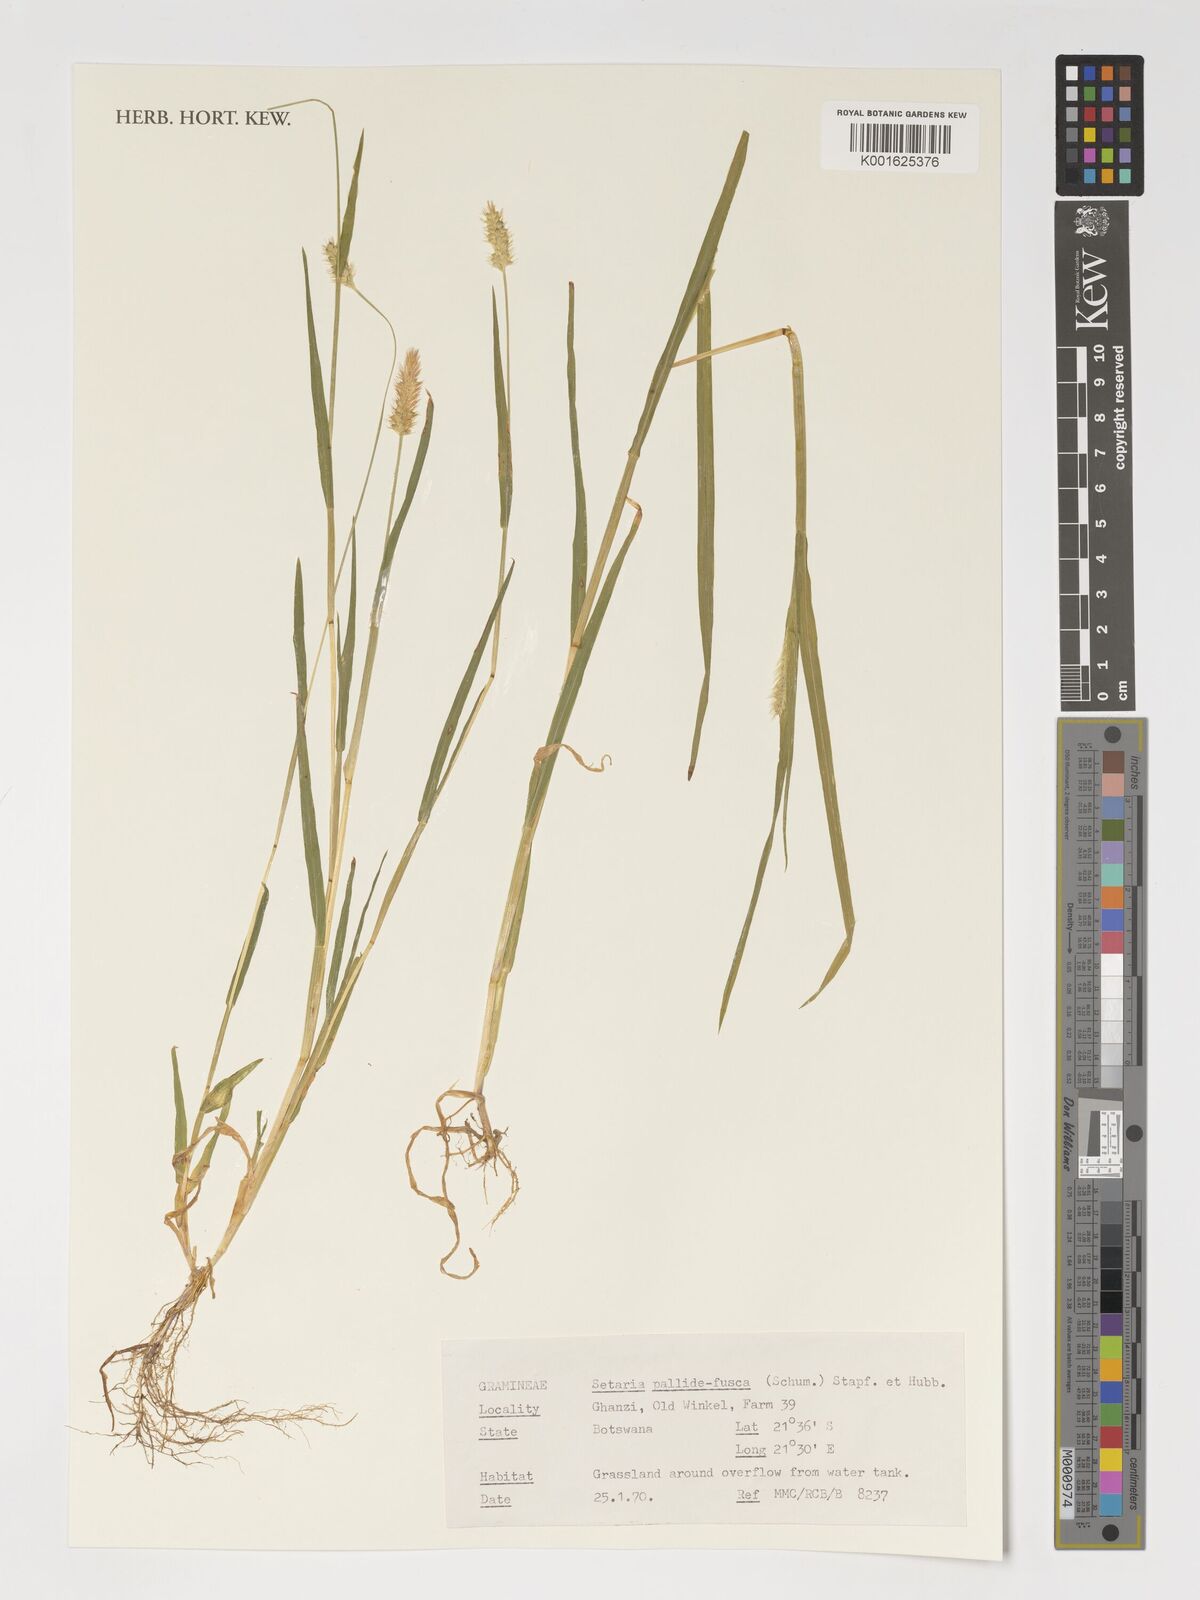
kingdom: Plantae
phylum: Tracheophyta
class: Liliopsida
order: Poales
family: Poaceae
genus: Setaria
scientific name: Setaria pumila
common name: Yellow bristle-grass
